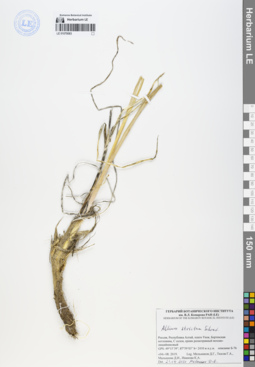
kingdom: Plantae
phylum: Tracheophyta
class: Liliopsida
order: Asparagales
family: Amaryllidaceae
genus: Allium
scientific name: Allium strictum
